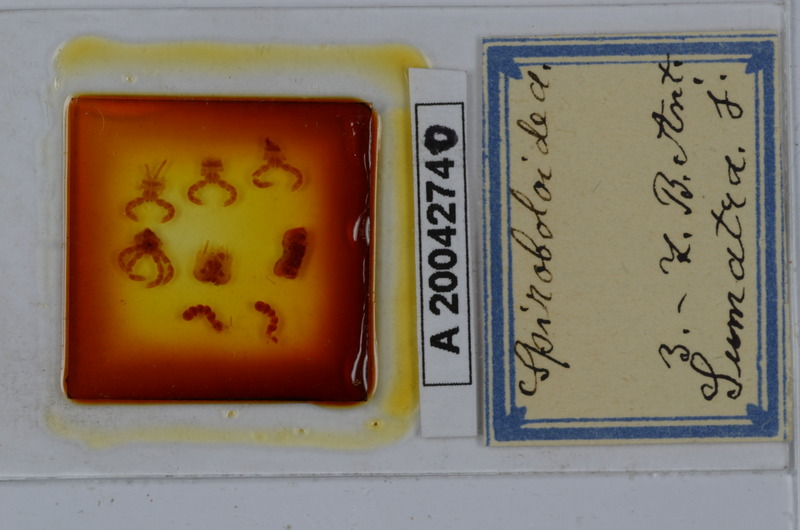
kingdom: Animalia
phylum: Arthropoda
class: Diplopoda
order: Spirobolida
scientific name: Spirobolida
